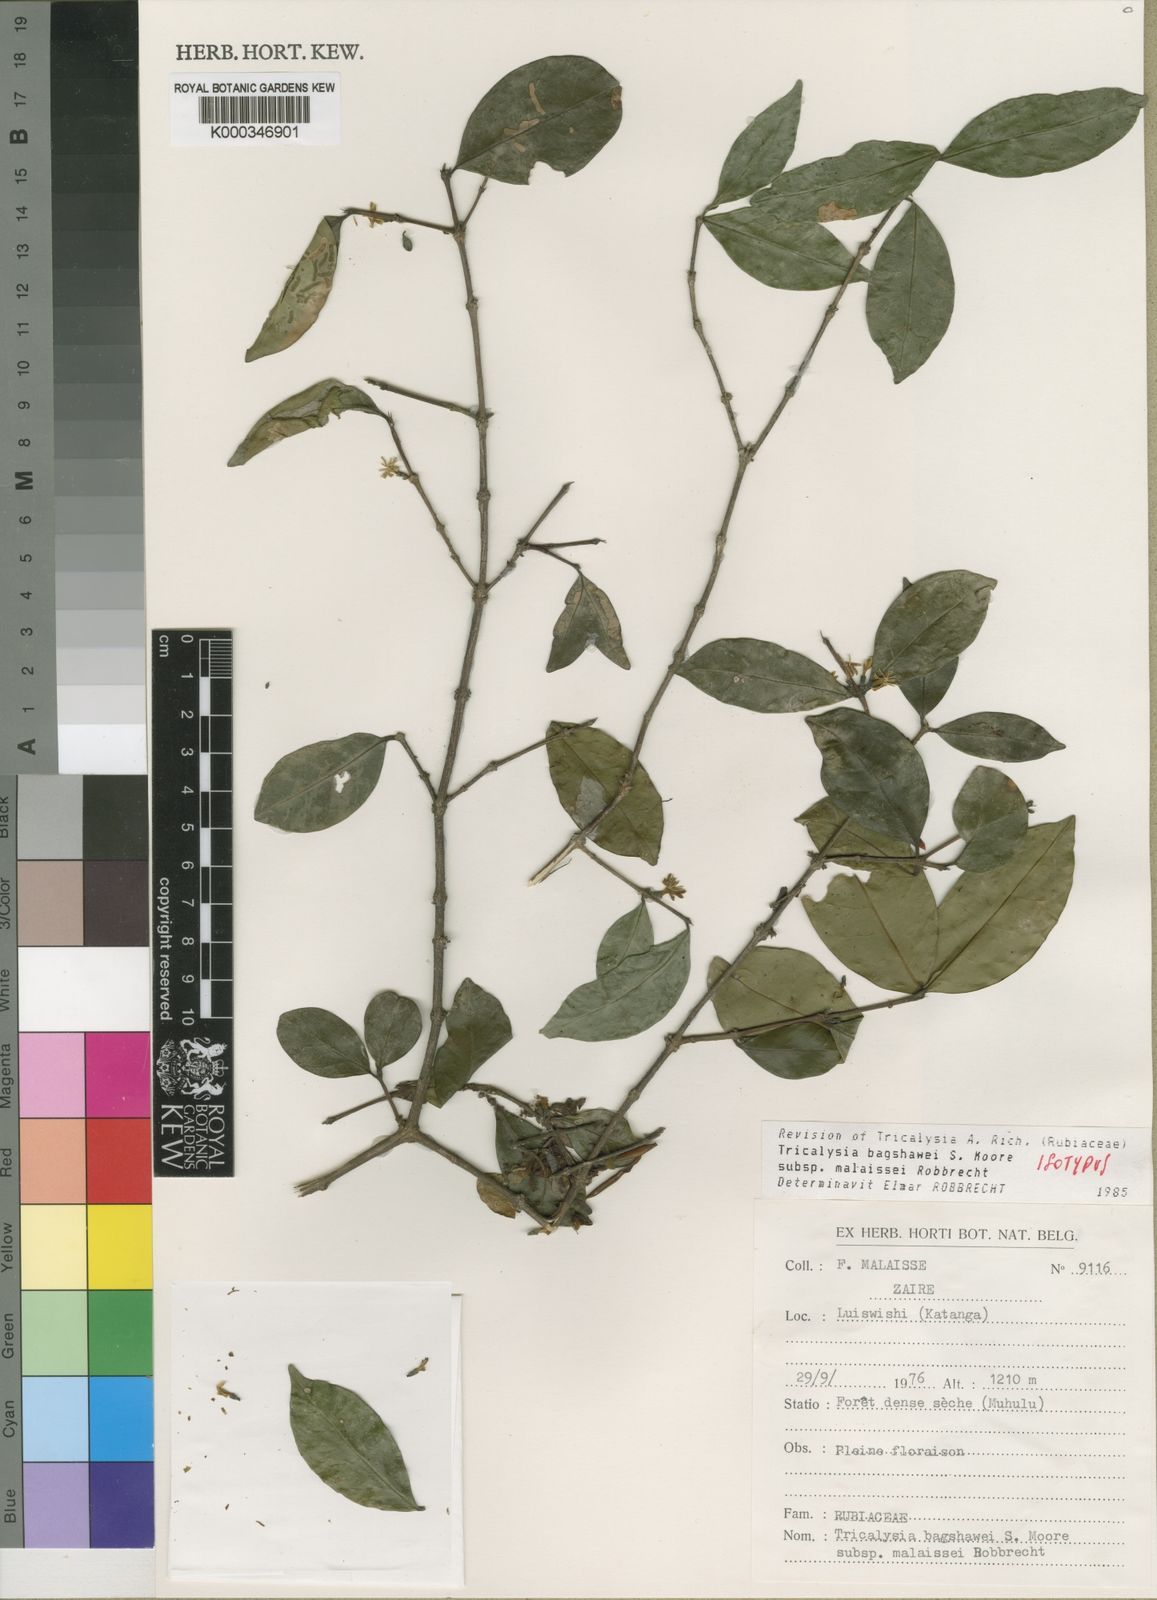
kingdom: Plantae
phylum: Tracheophyta
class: Magnoliopsida
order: Gentianales
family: Rubiaceae
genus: Tricalysia
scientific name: Tricalysia bagshawei
